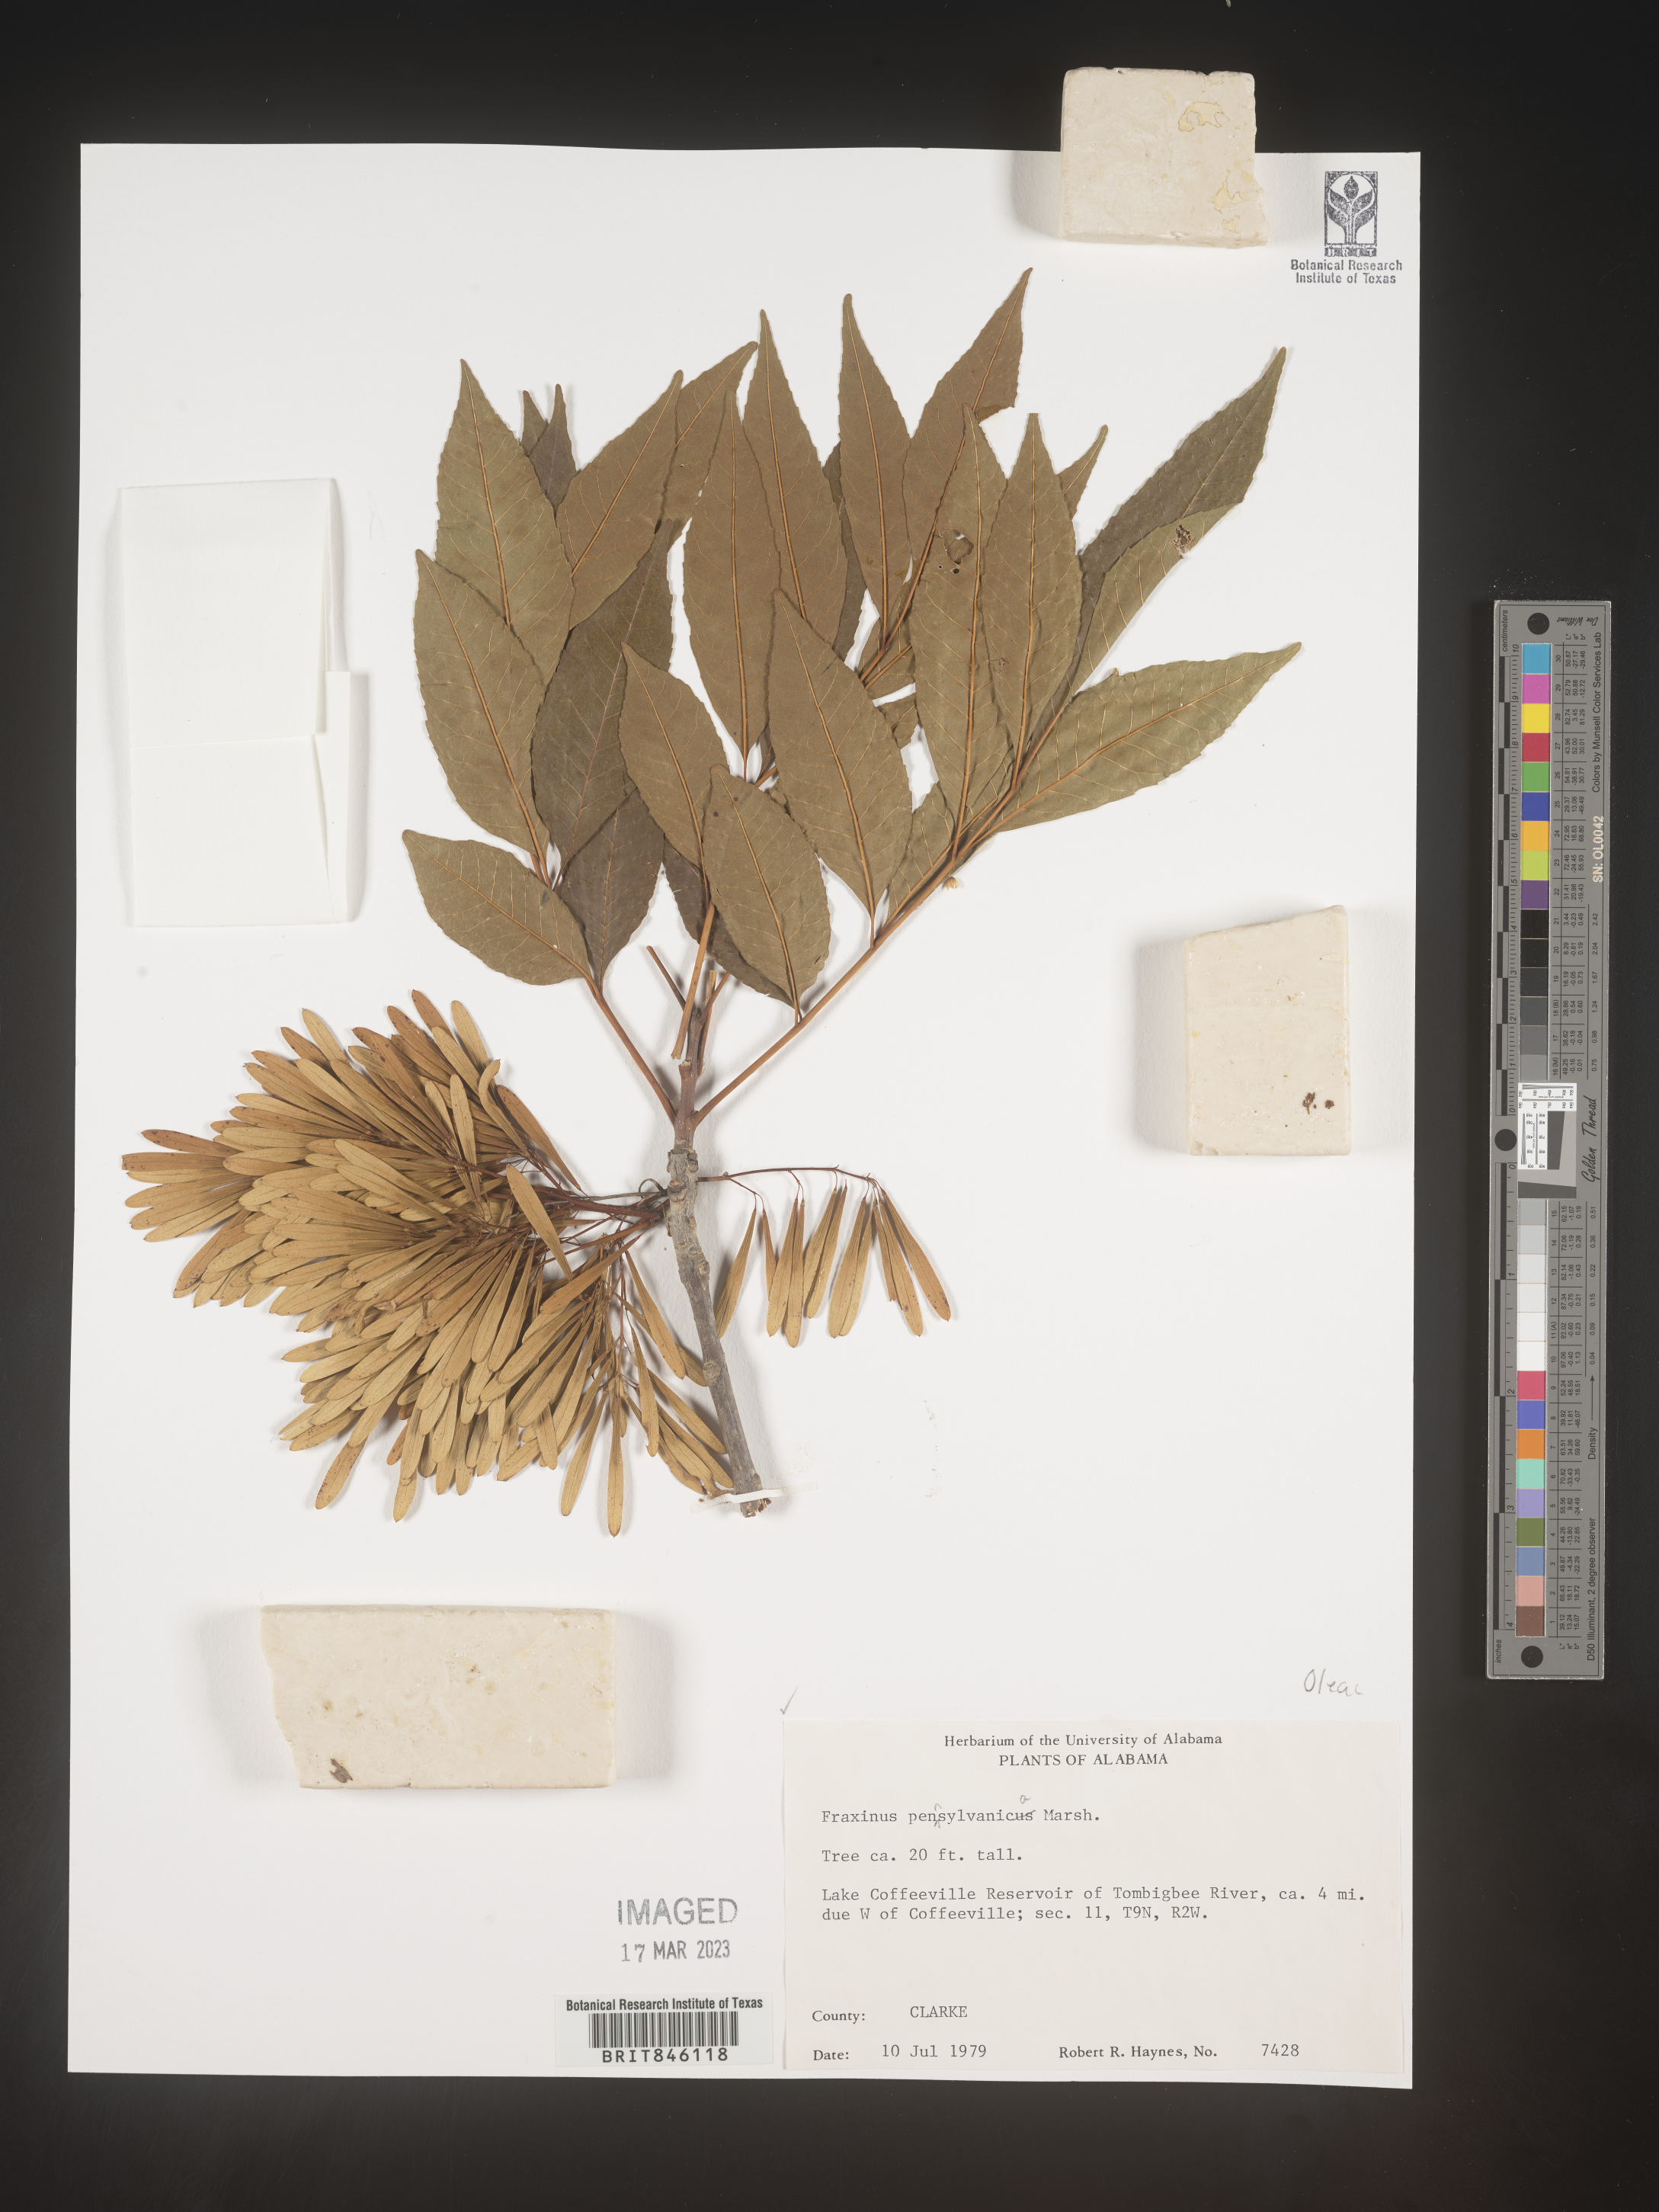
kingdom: Plantae
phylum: Tracheophyta
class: Magnoliopsida
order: Lamiales
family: Oleaceae
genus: Fraxinus
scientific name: Fraxinus pennsylvanica
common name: Green ash
